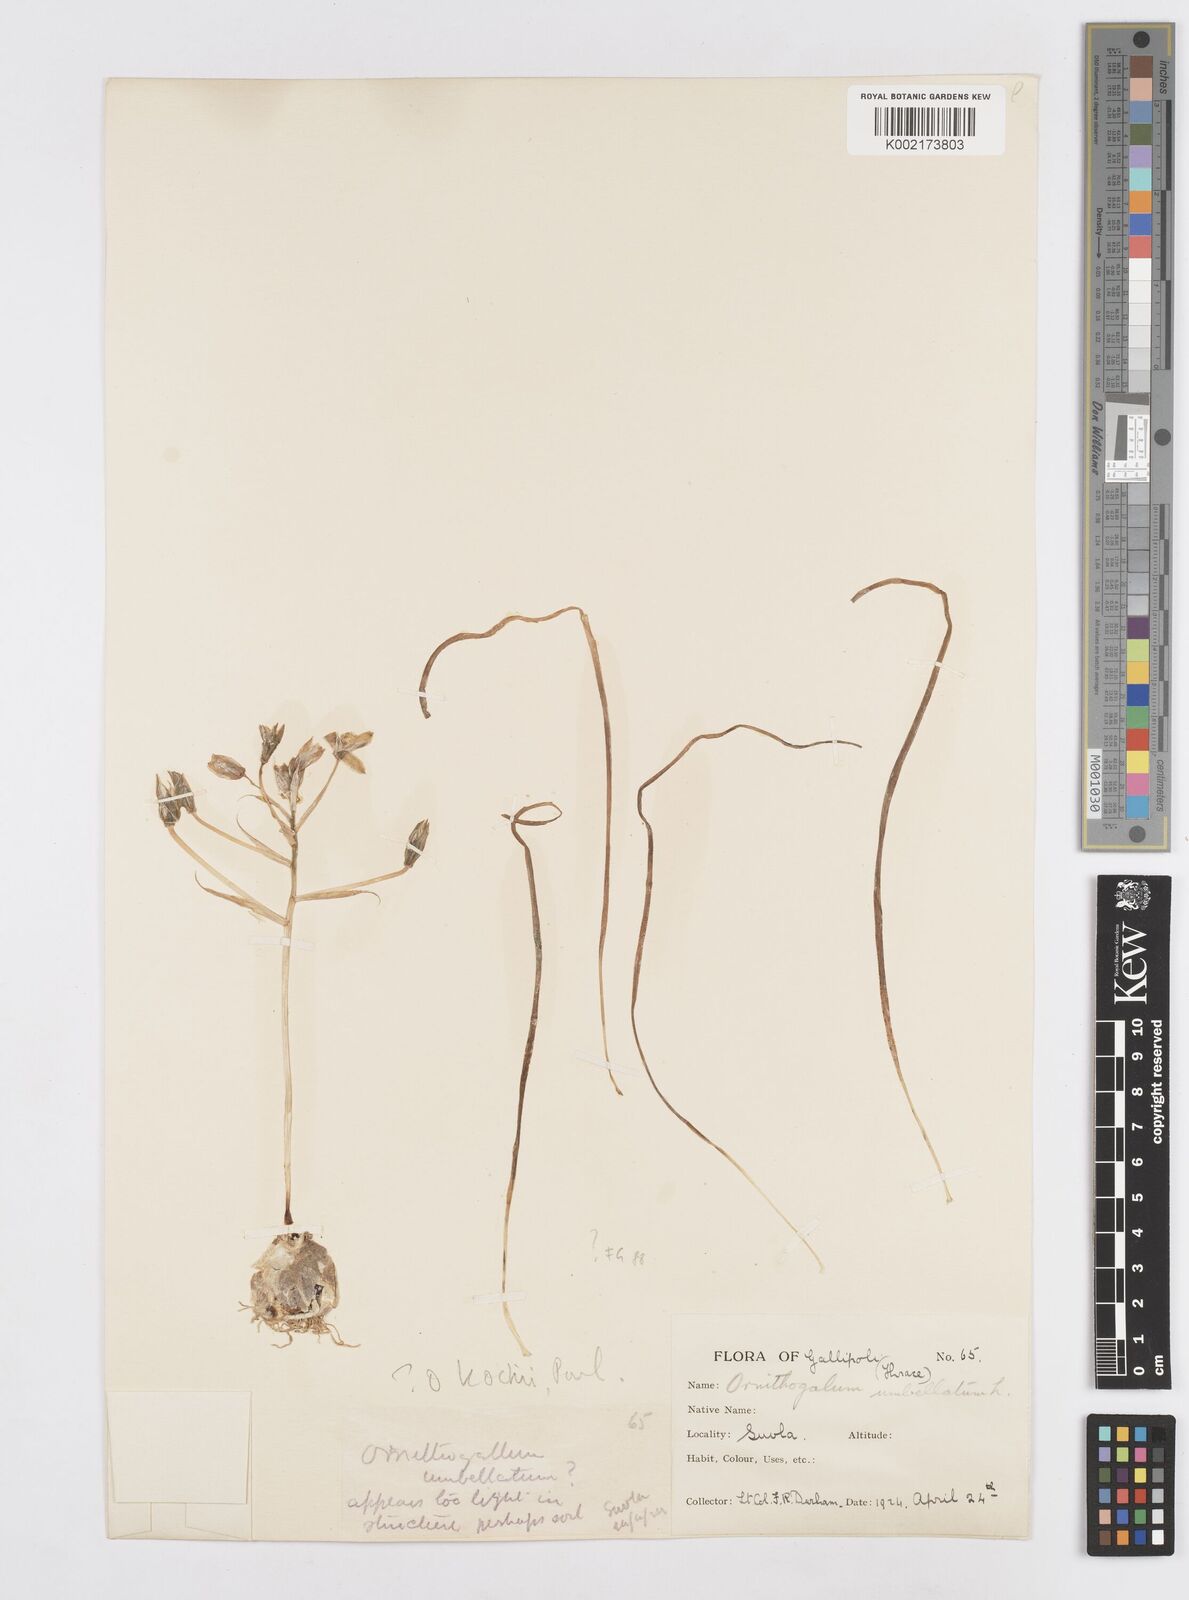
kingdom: Plantae
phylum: Tracheophyta
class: Liliopsida
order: Asparagales
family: Asparagaceae
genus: Ornithogalum
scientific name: Ornithogalum umbellatum
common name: Garden star-of-bethlehem
